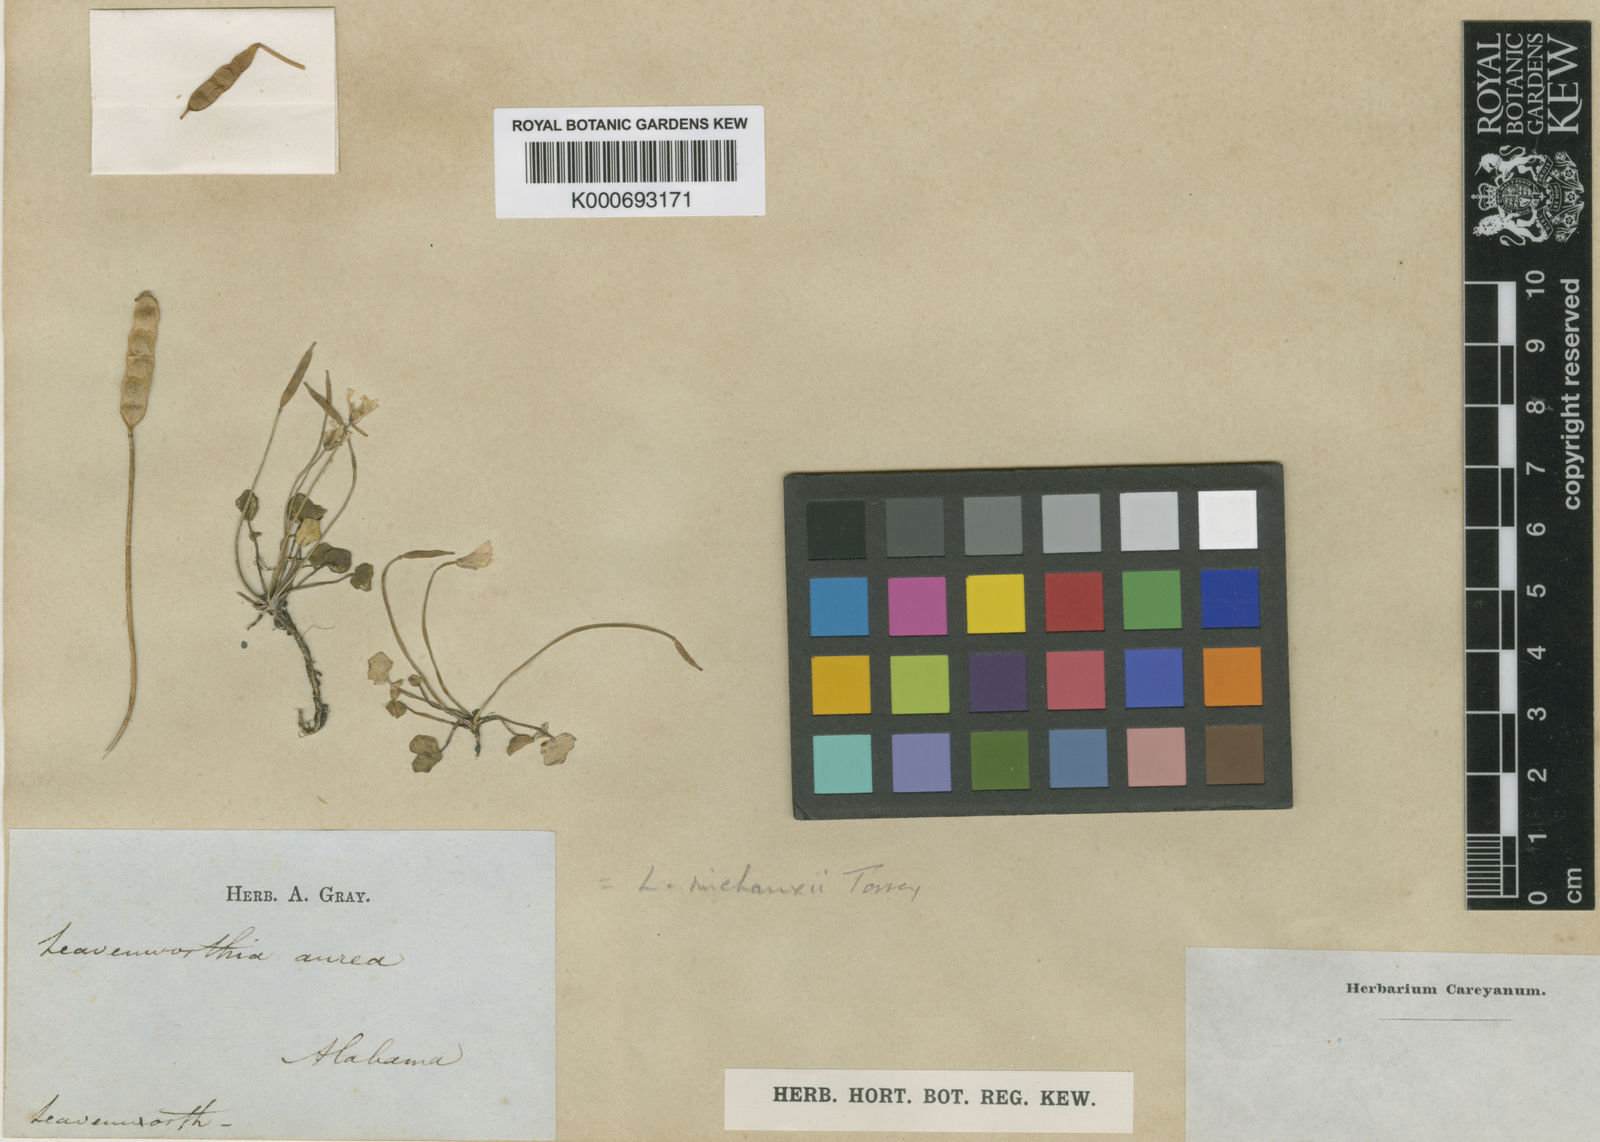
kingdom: Plantae
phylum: Tracheophyta
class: Magnoliopsida
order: Brassicales
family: Brassicaceae
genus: Leavenworthia
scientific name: Leavenworthia aurea
